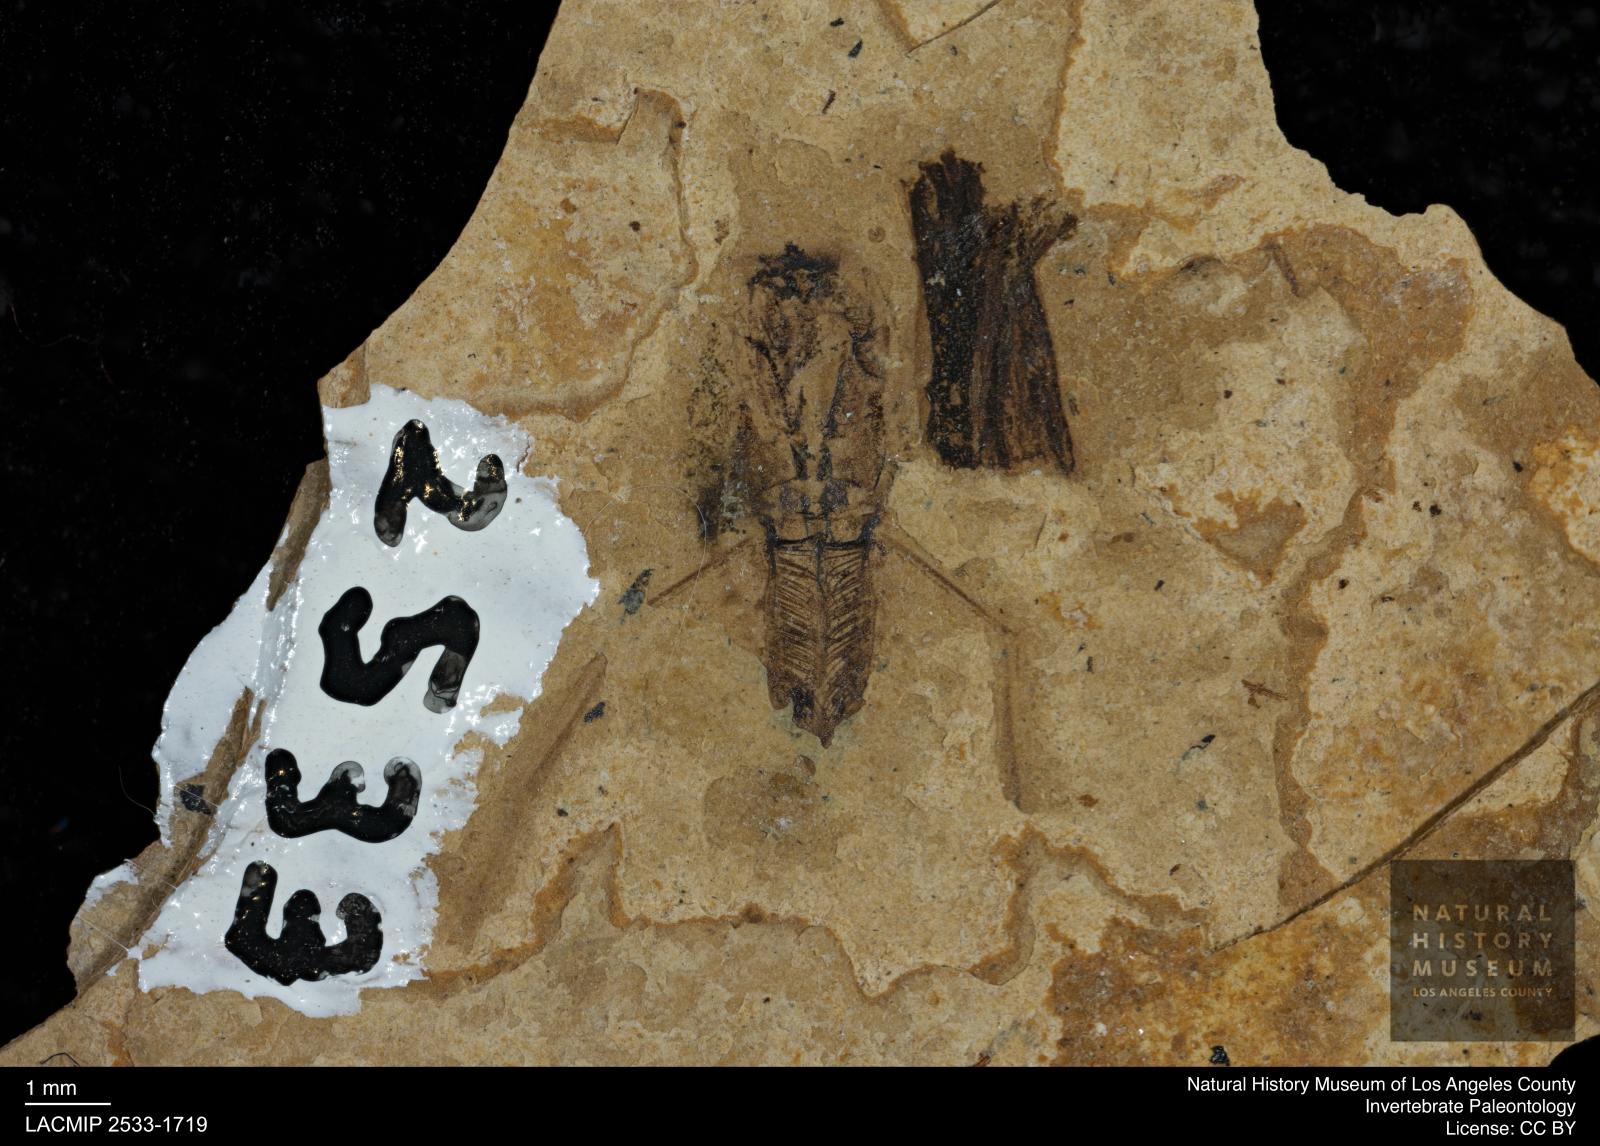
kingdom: Animalia
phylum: Arthropoda
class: Insecta
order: Hemiptera
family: Notonectidae
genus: Notonecta
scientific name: Notonecta
